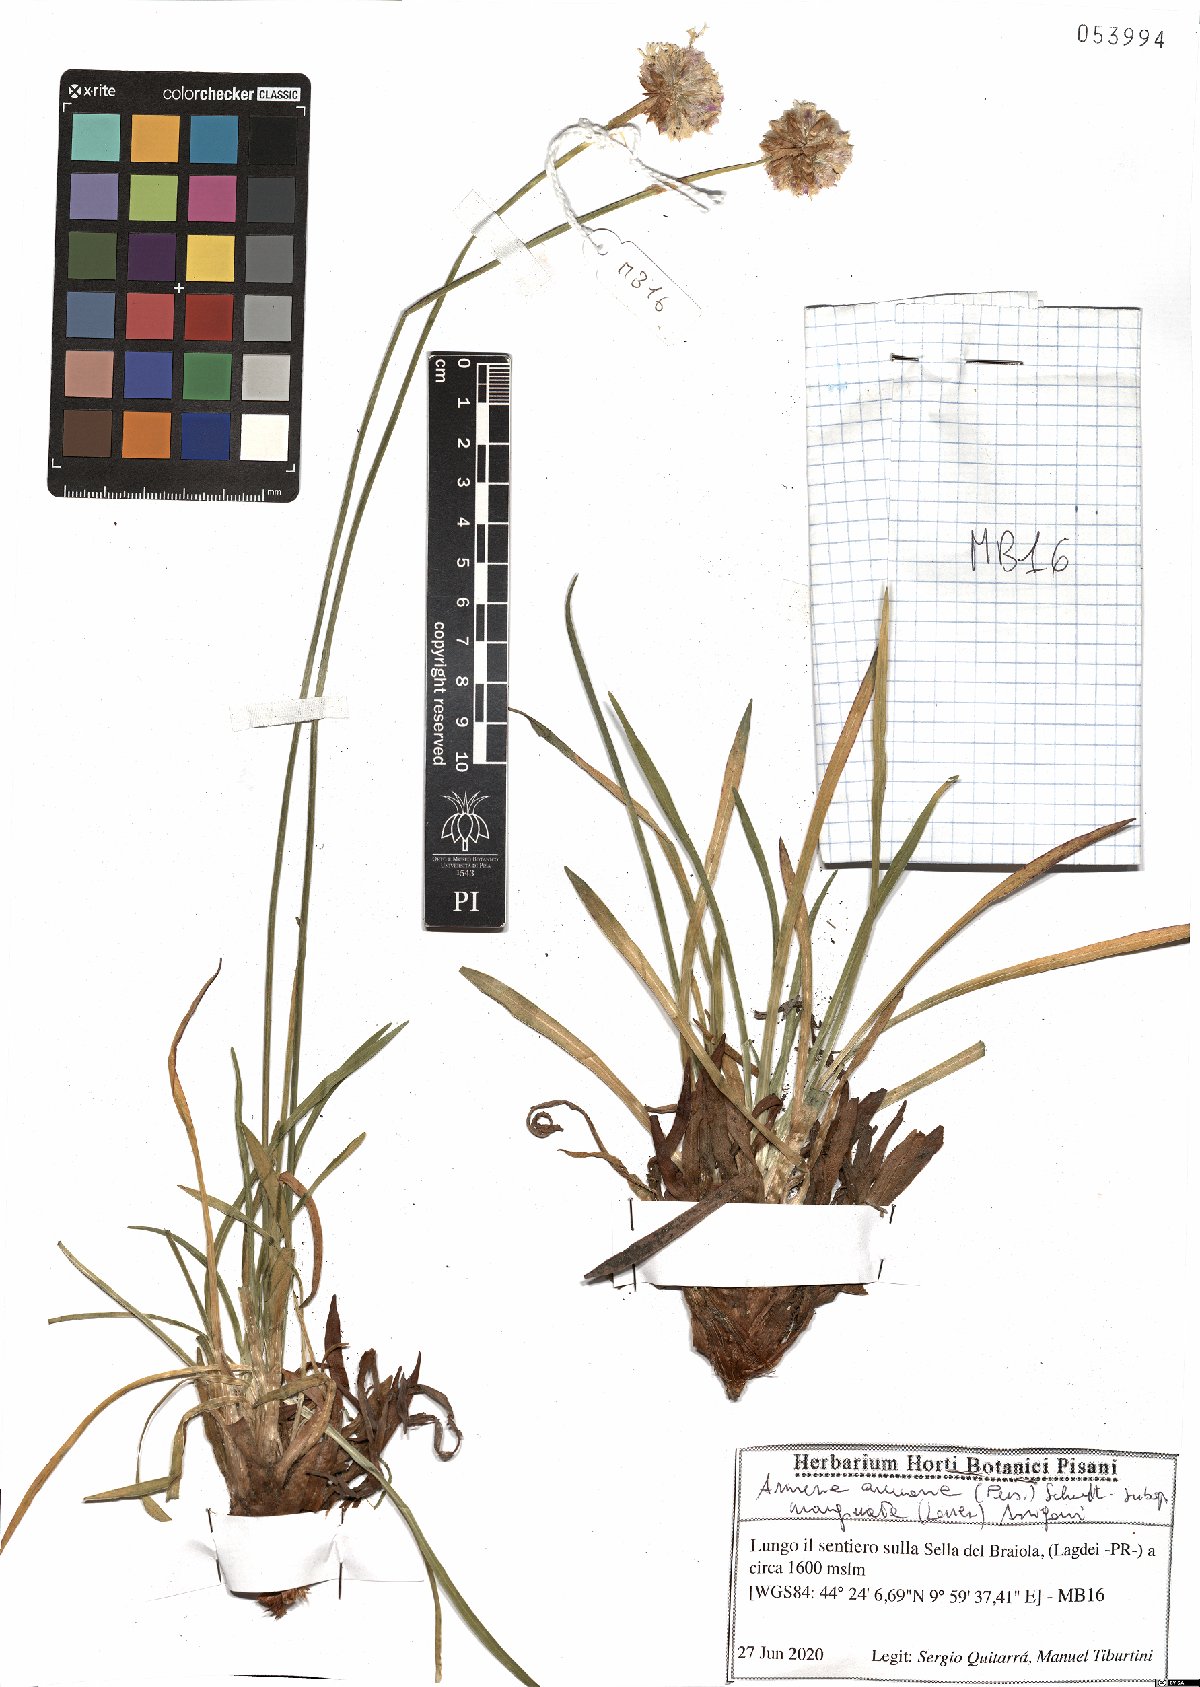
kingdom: Plantae
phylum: Tracheophyta
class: Magnoliopsida
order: Caryophyllales
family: Plumbaginaceae
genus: Armeria
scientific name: Armeria arenaria
